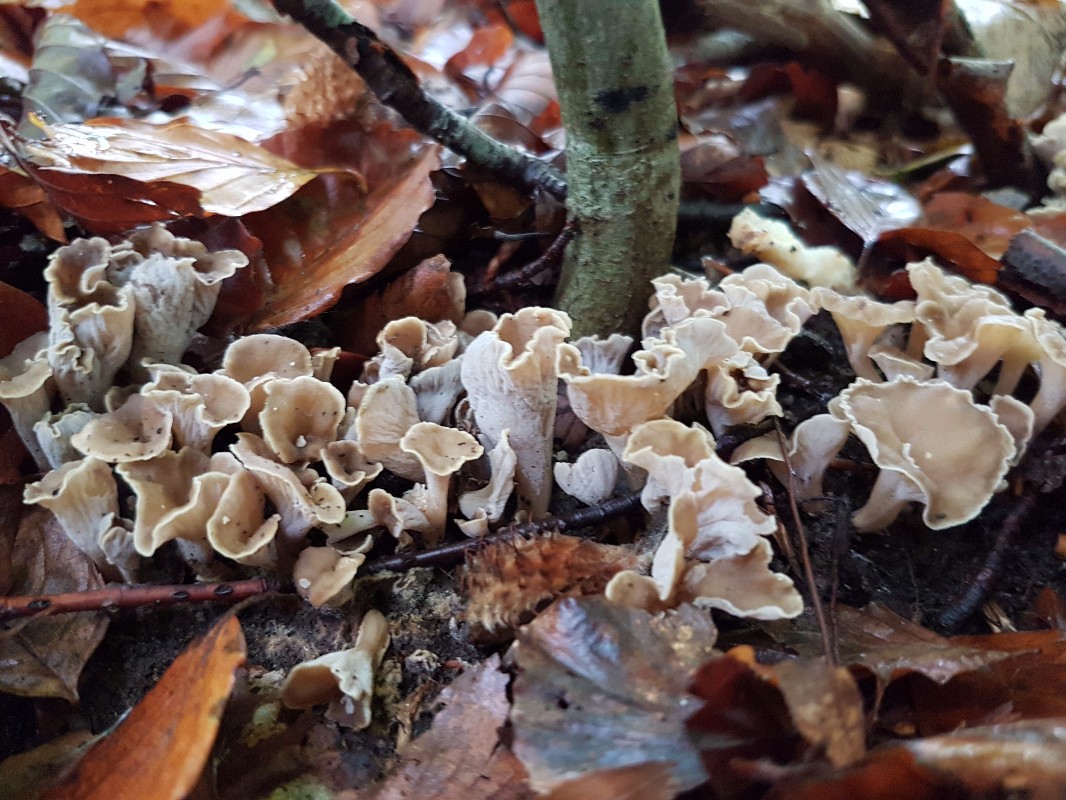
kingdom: Fungi
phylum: Basidiomycota
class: Agaricomycetes
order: Cantharellales
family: Hydnaceae
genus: Craterellus
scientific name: Craterellus undulatus
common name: liden kantarel
